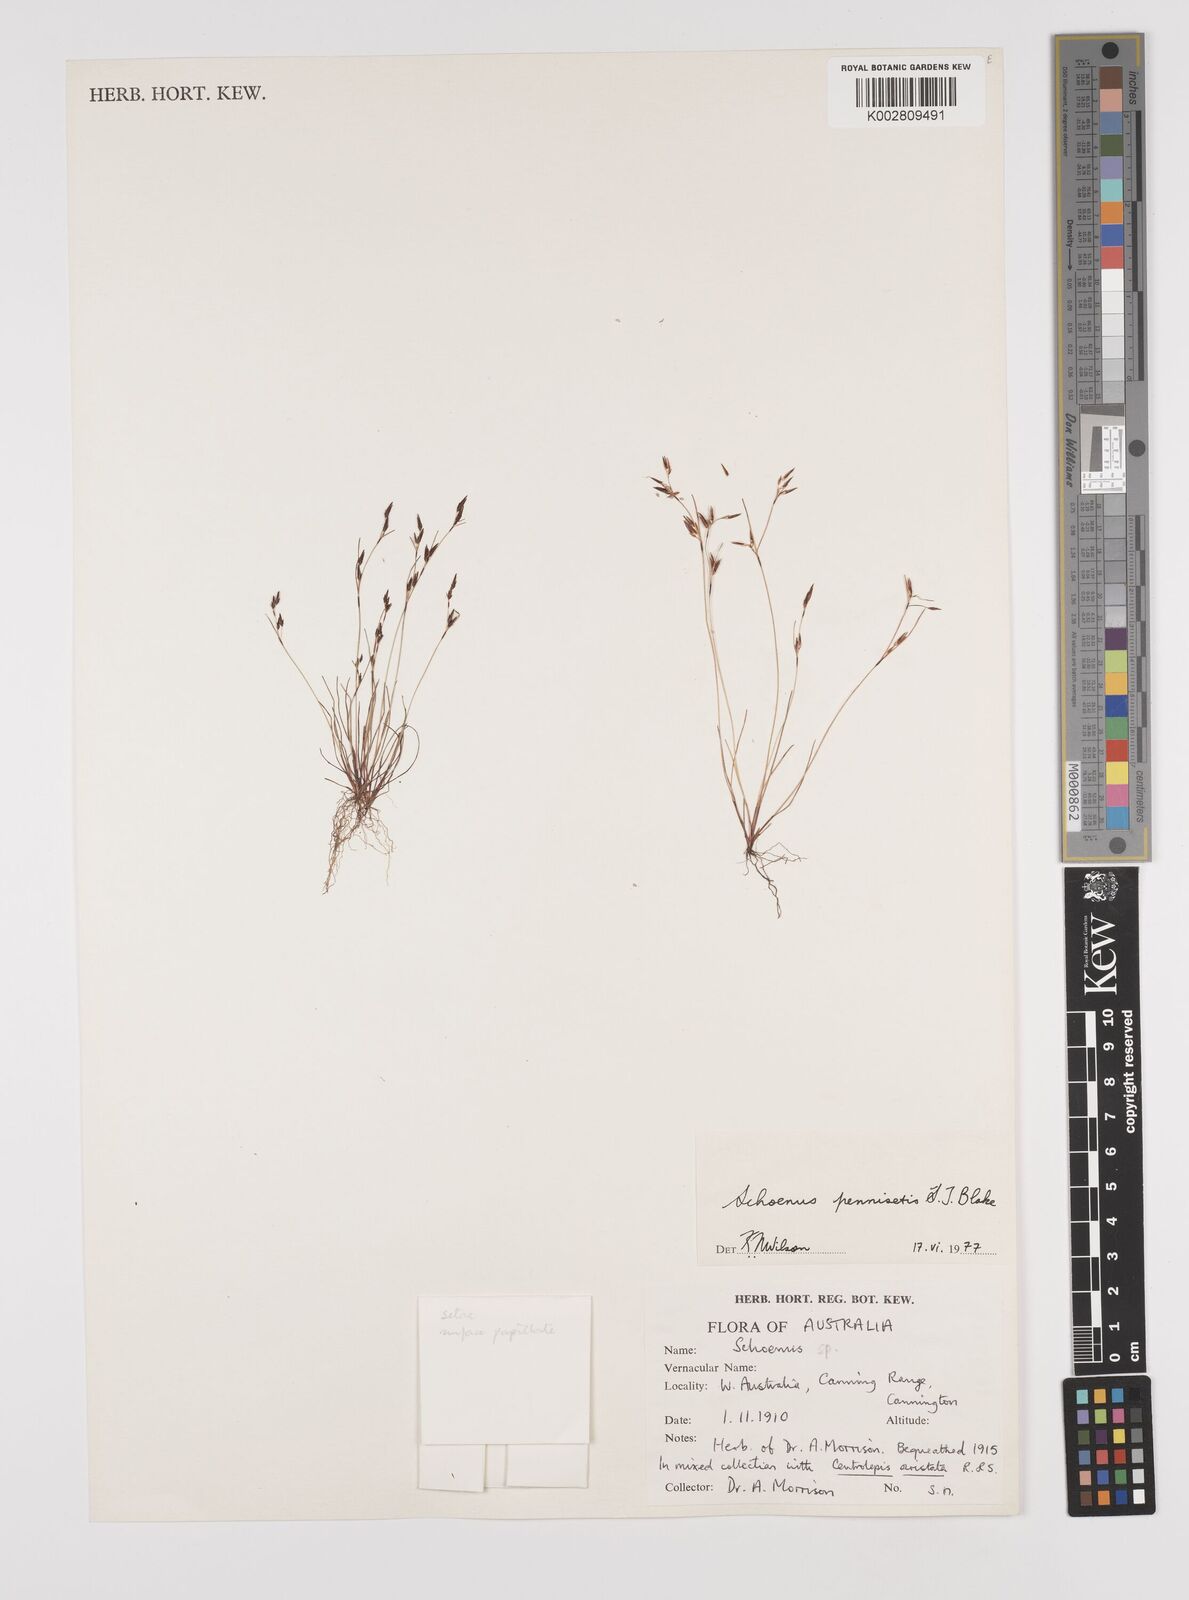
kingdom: Plantae
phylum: Tracheophyta
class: Liliopsida
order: Poales
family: Cyperaceae
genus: Schoenus
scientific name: Schoenus pennisetis
